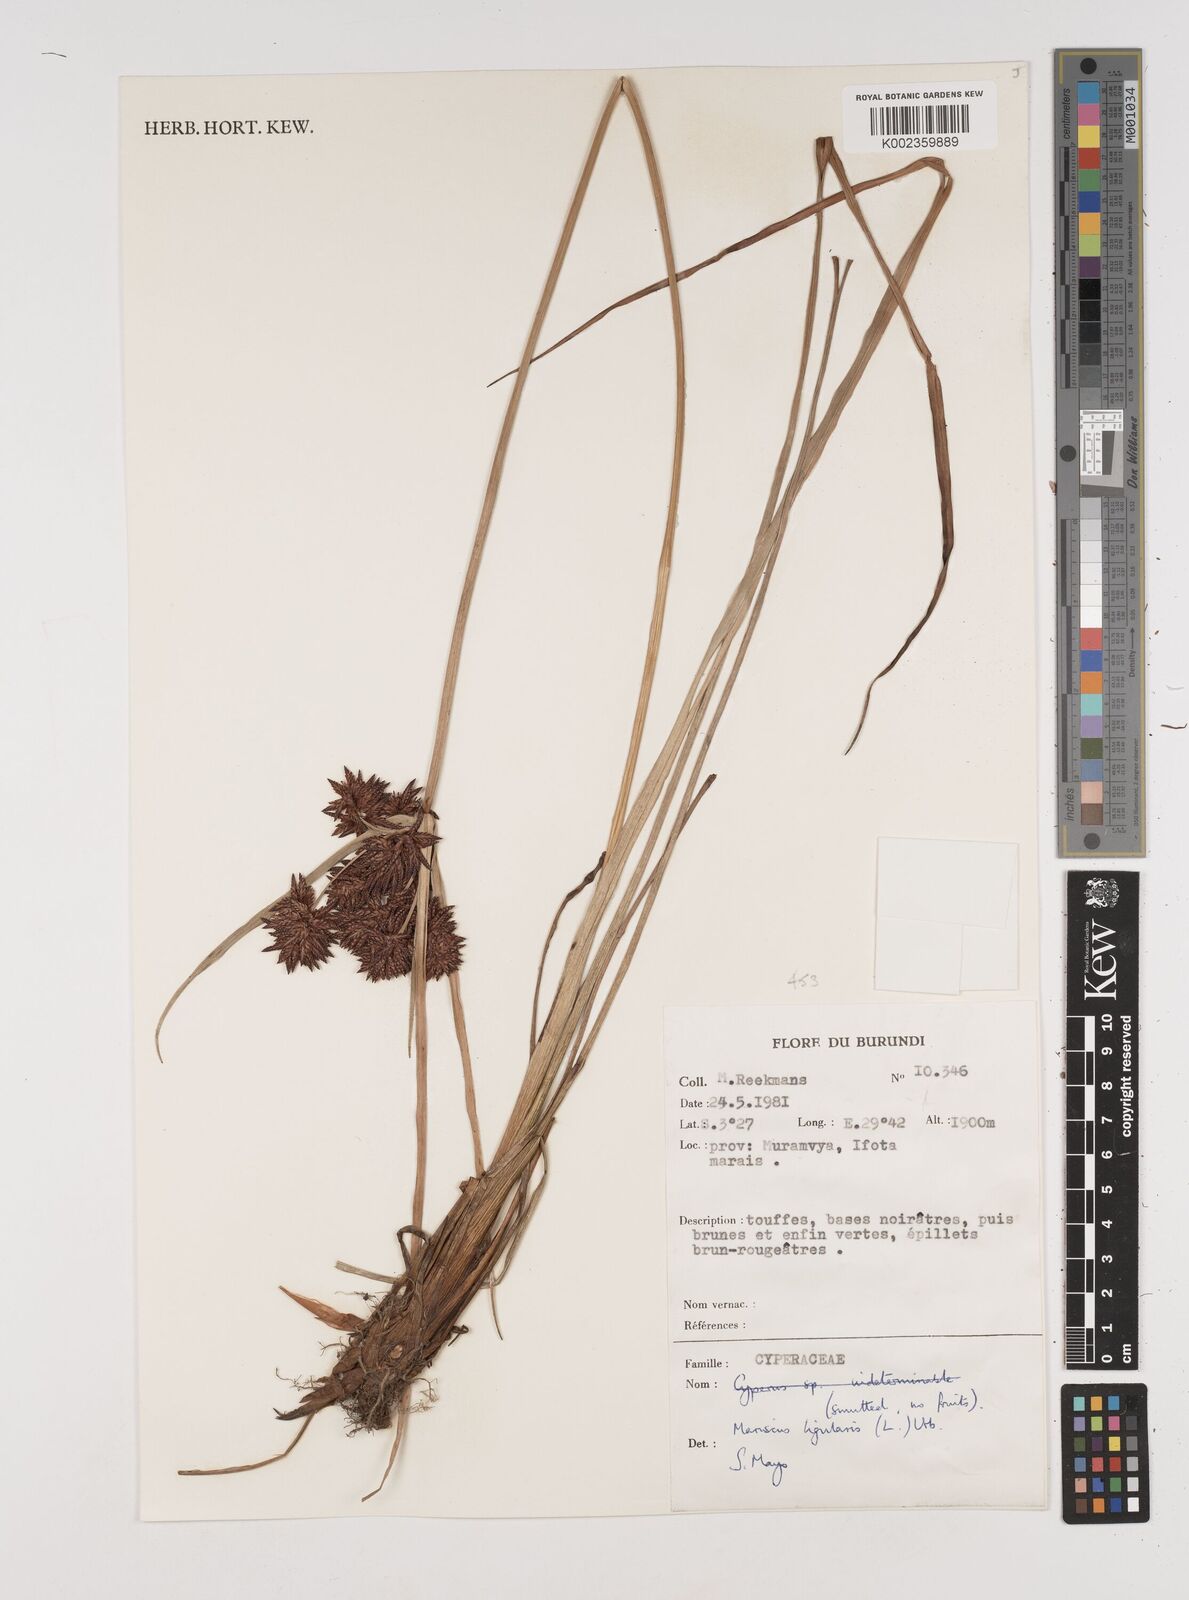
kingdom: Plantae
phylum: Tracheophyta
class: Liliopsida
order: Poales
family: Cyperaceae
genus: Cyperus
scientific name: Cyperus ligularis
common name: Swamp flat sedge
